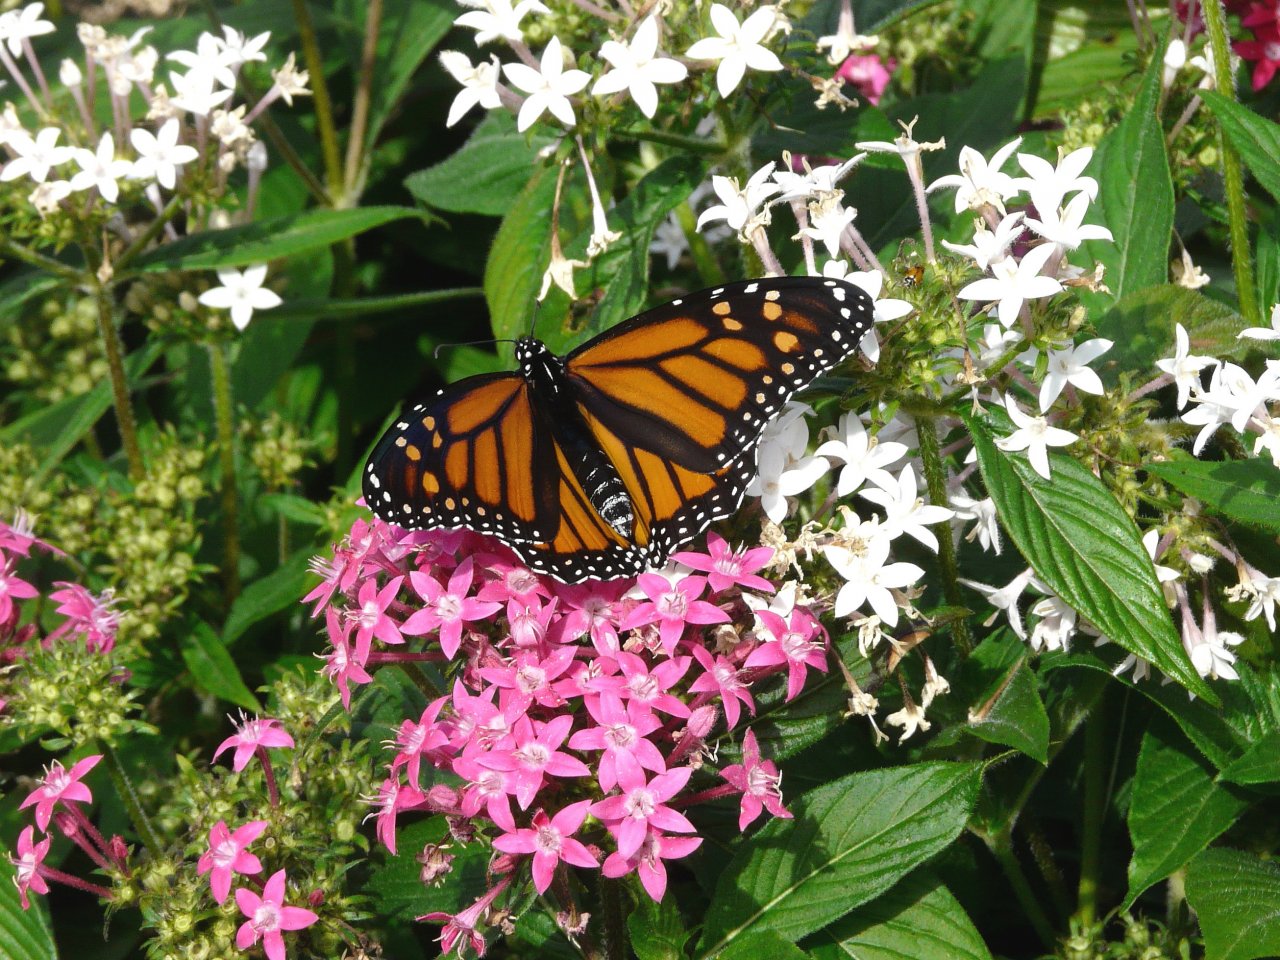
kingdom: Animalia
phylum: Arthropoda
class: Insecta
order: Lepidoptera
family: Nymphalidae
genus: Danaus
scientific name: Danaus plexippus
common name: Monarch
